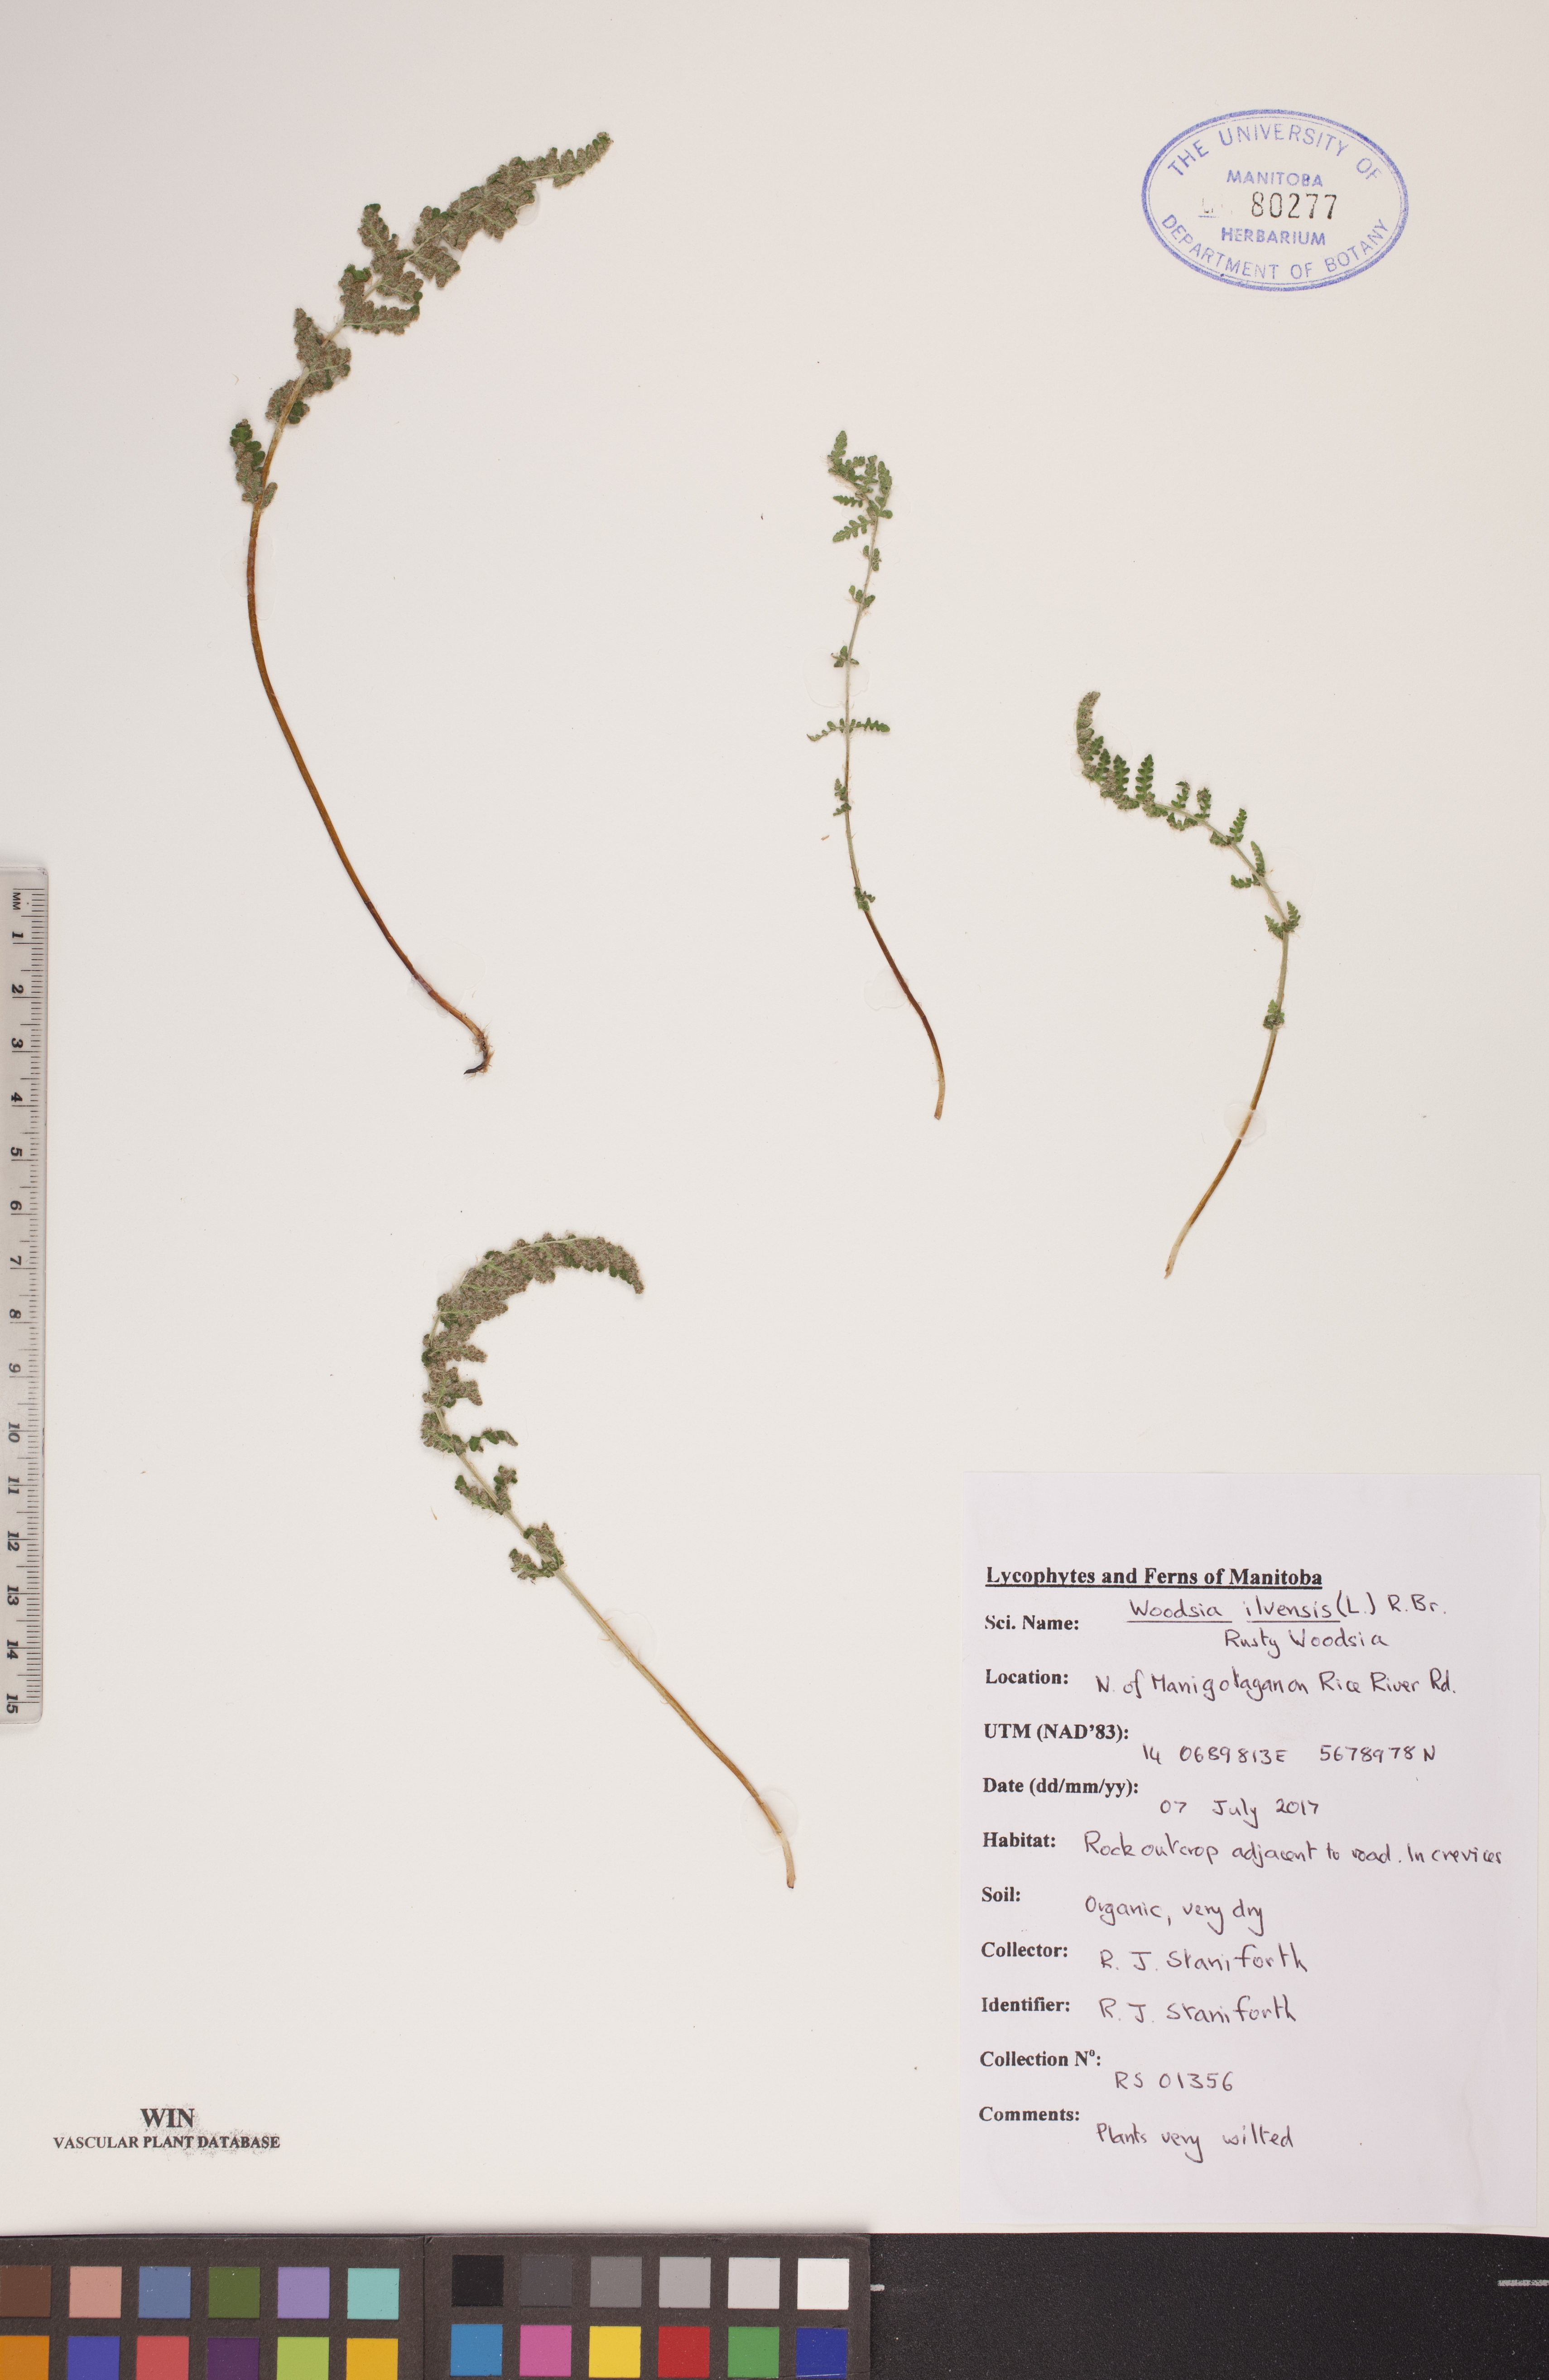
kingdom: Plantae
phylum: Tracheophyta
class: Polypodiopsida
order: Polypodiales
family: Woodsiaceae
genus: Woodsia
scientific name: Woodsia ilvensis
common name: Fragrant woodsia
